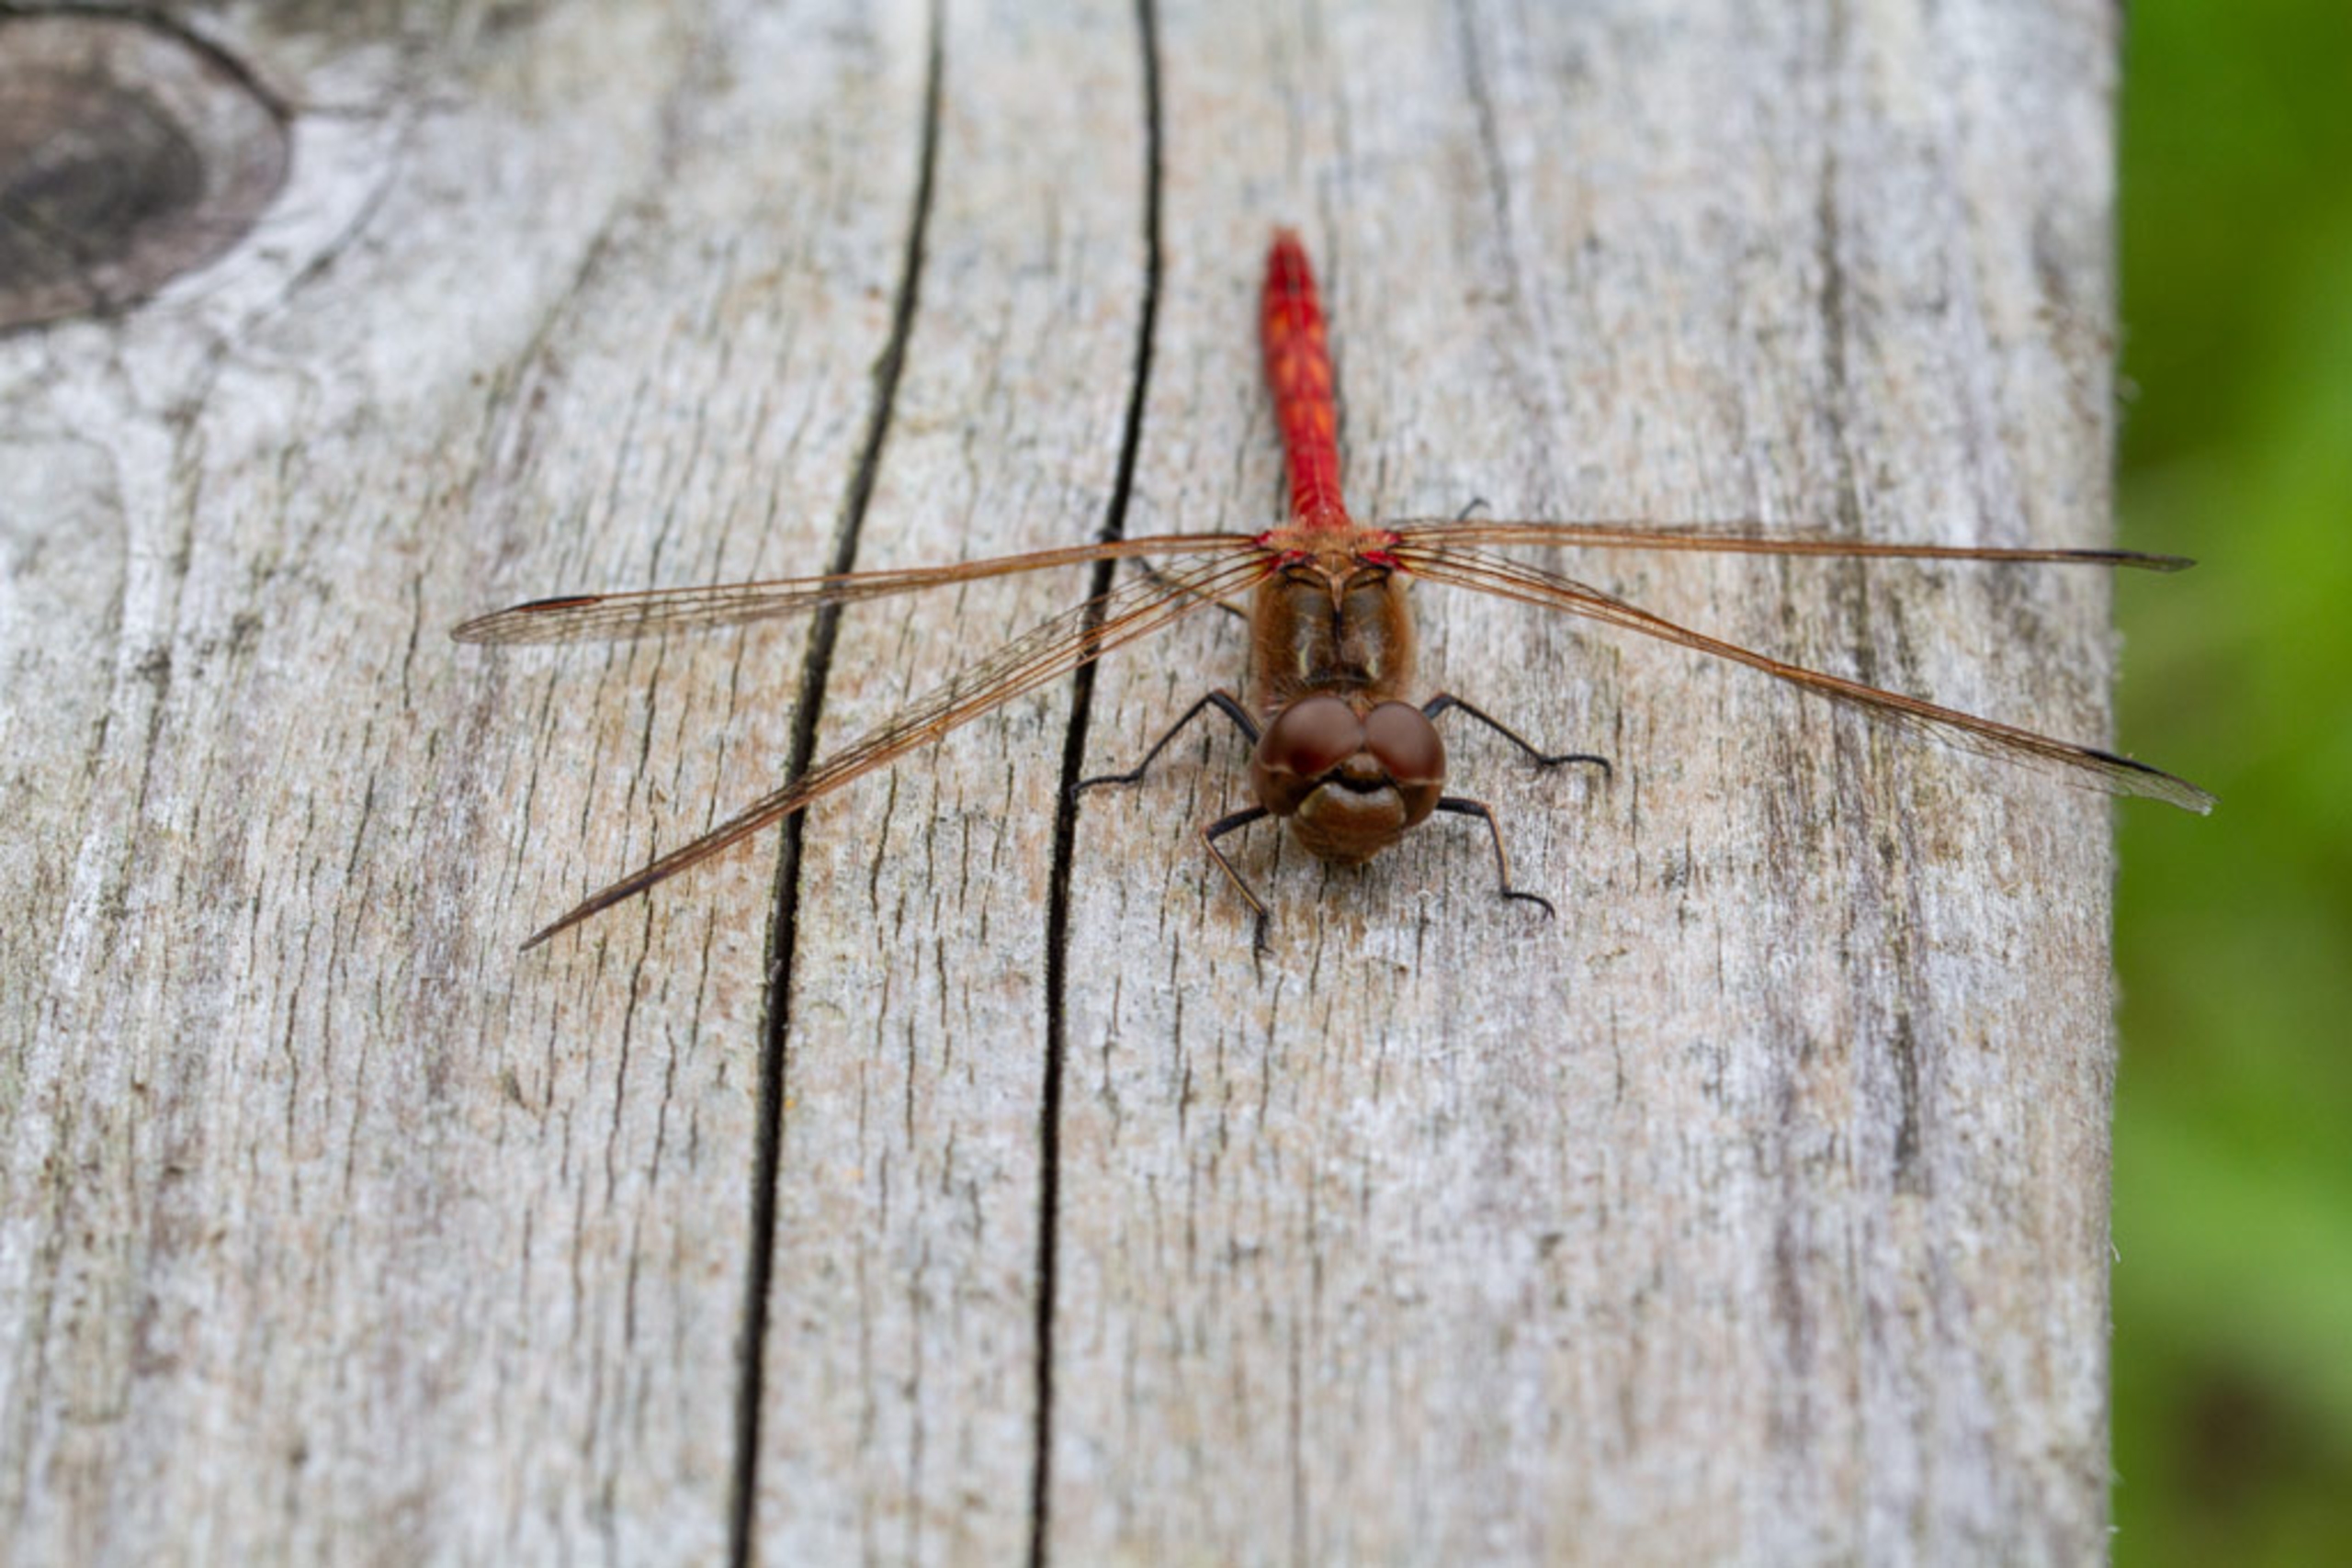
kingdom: Animalia
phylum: Arthropoda
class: Insecta
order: Odonata
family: Libellulidae
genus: Sympetrum
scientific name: Sympetrum vulgatum
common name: Almindelig hedelibel
